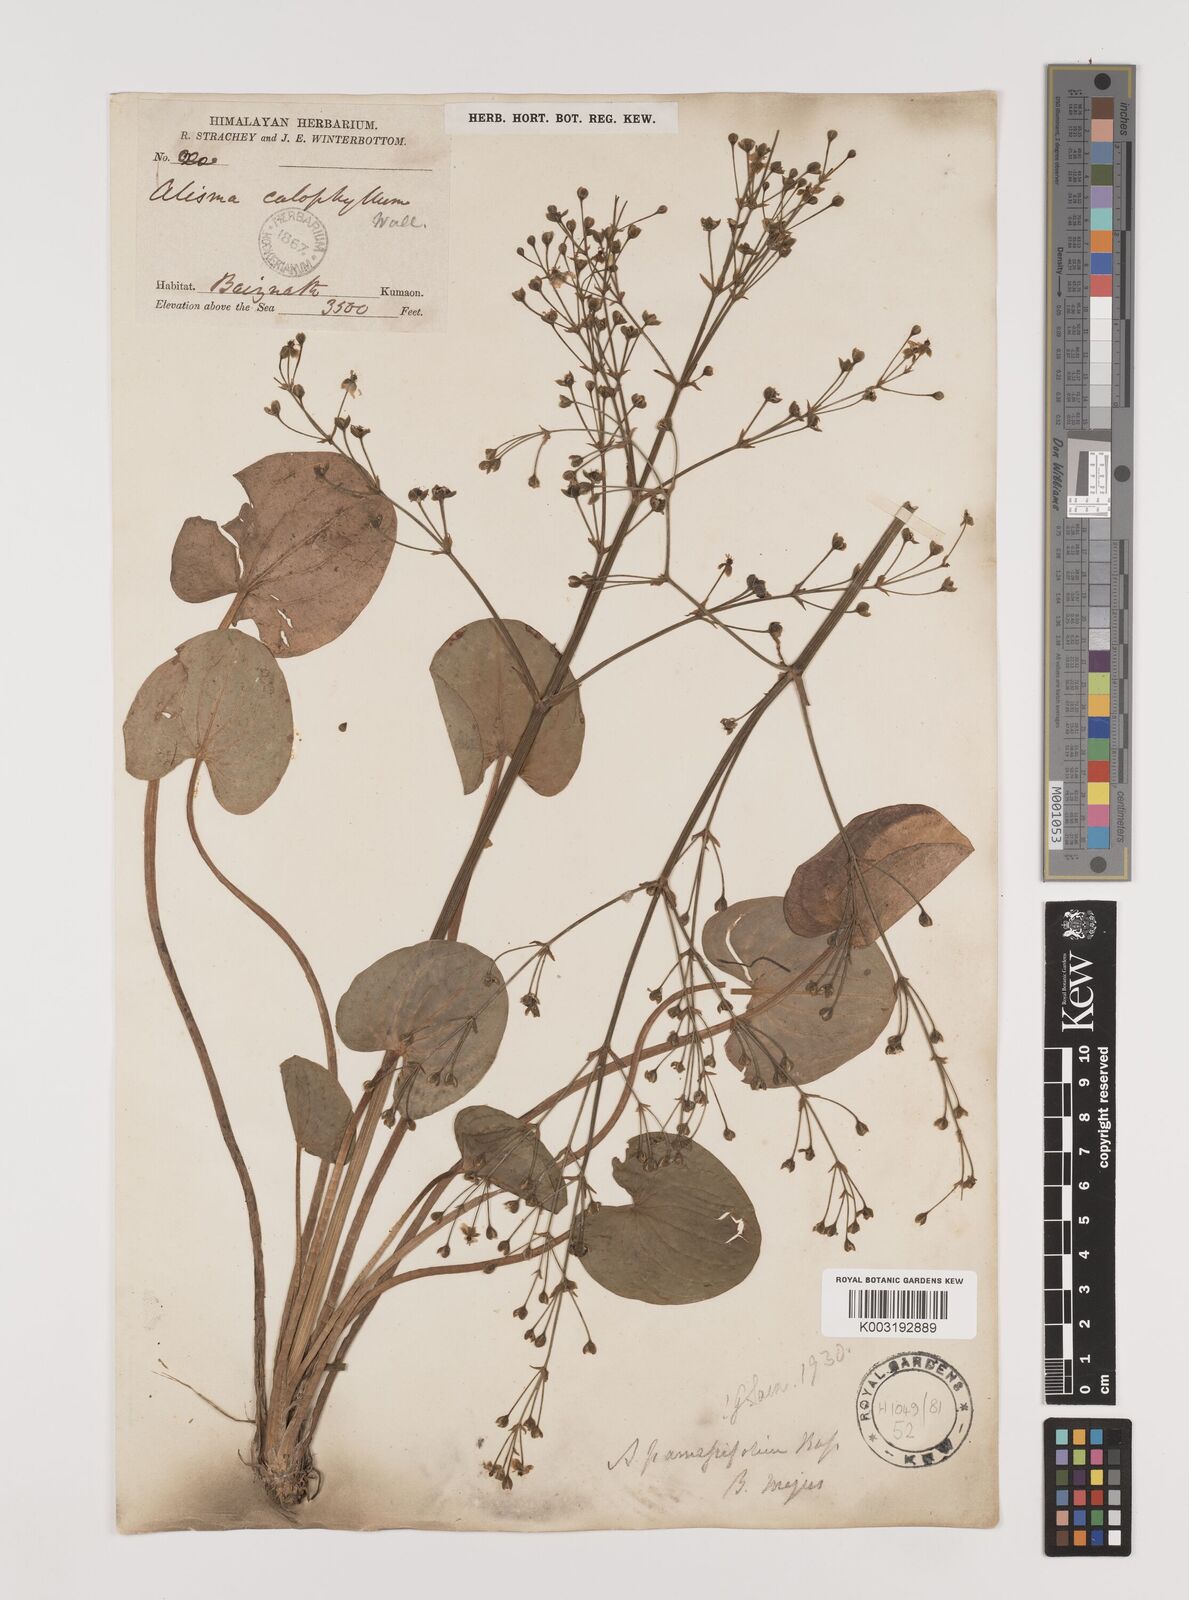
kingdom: Plantae
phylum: Tracheophyta
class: Liliopsida
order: Alismatales
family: Alismataceae
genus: Caldesia
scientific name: Caldesia parnassifolia
